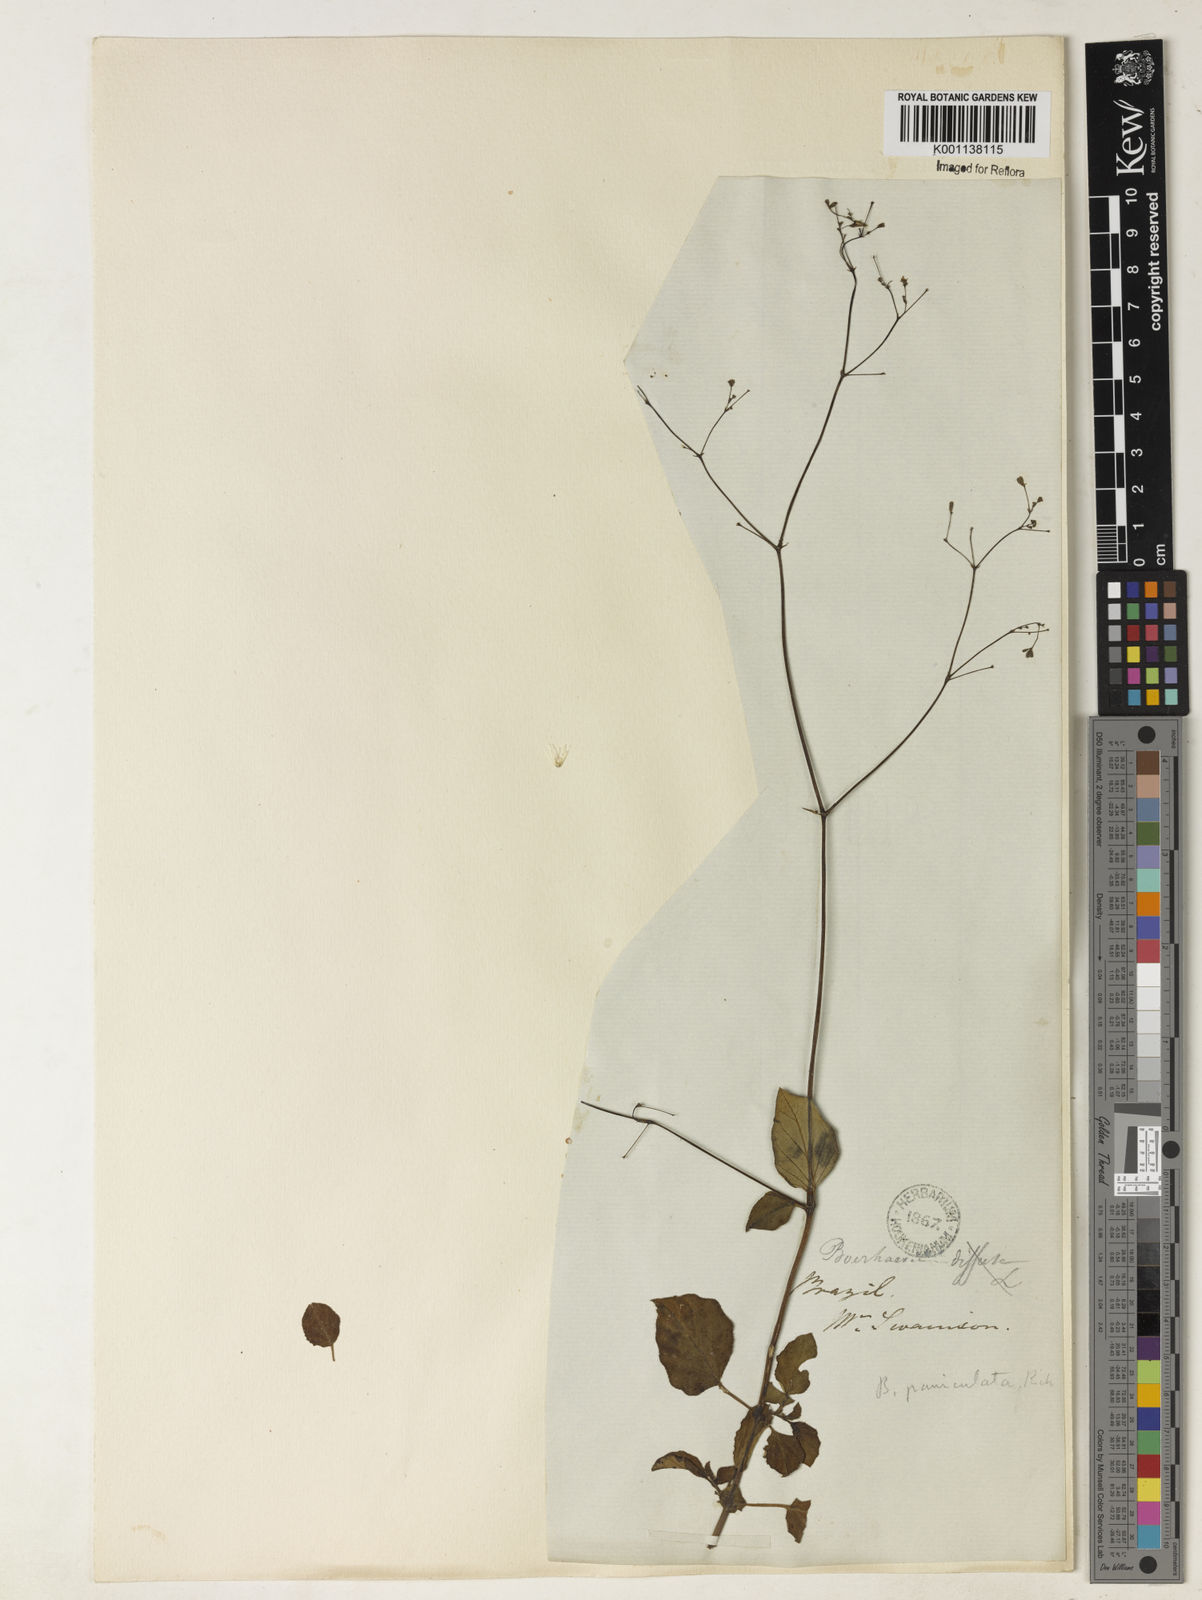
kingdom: Plantae
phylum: Tracheophyta
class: Magnoliopsida
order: Caryophyllales
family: Nyctaginaceae
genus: Boerhavia
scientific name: Boerhavia diffusa
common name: Red spiderling
